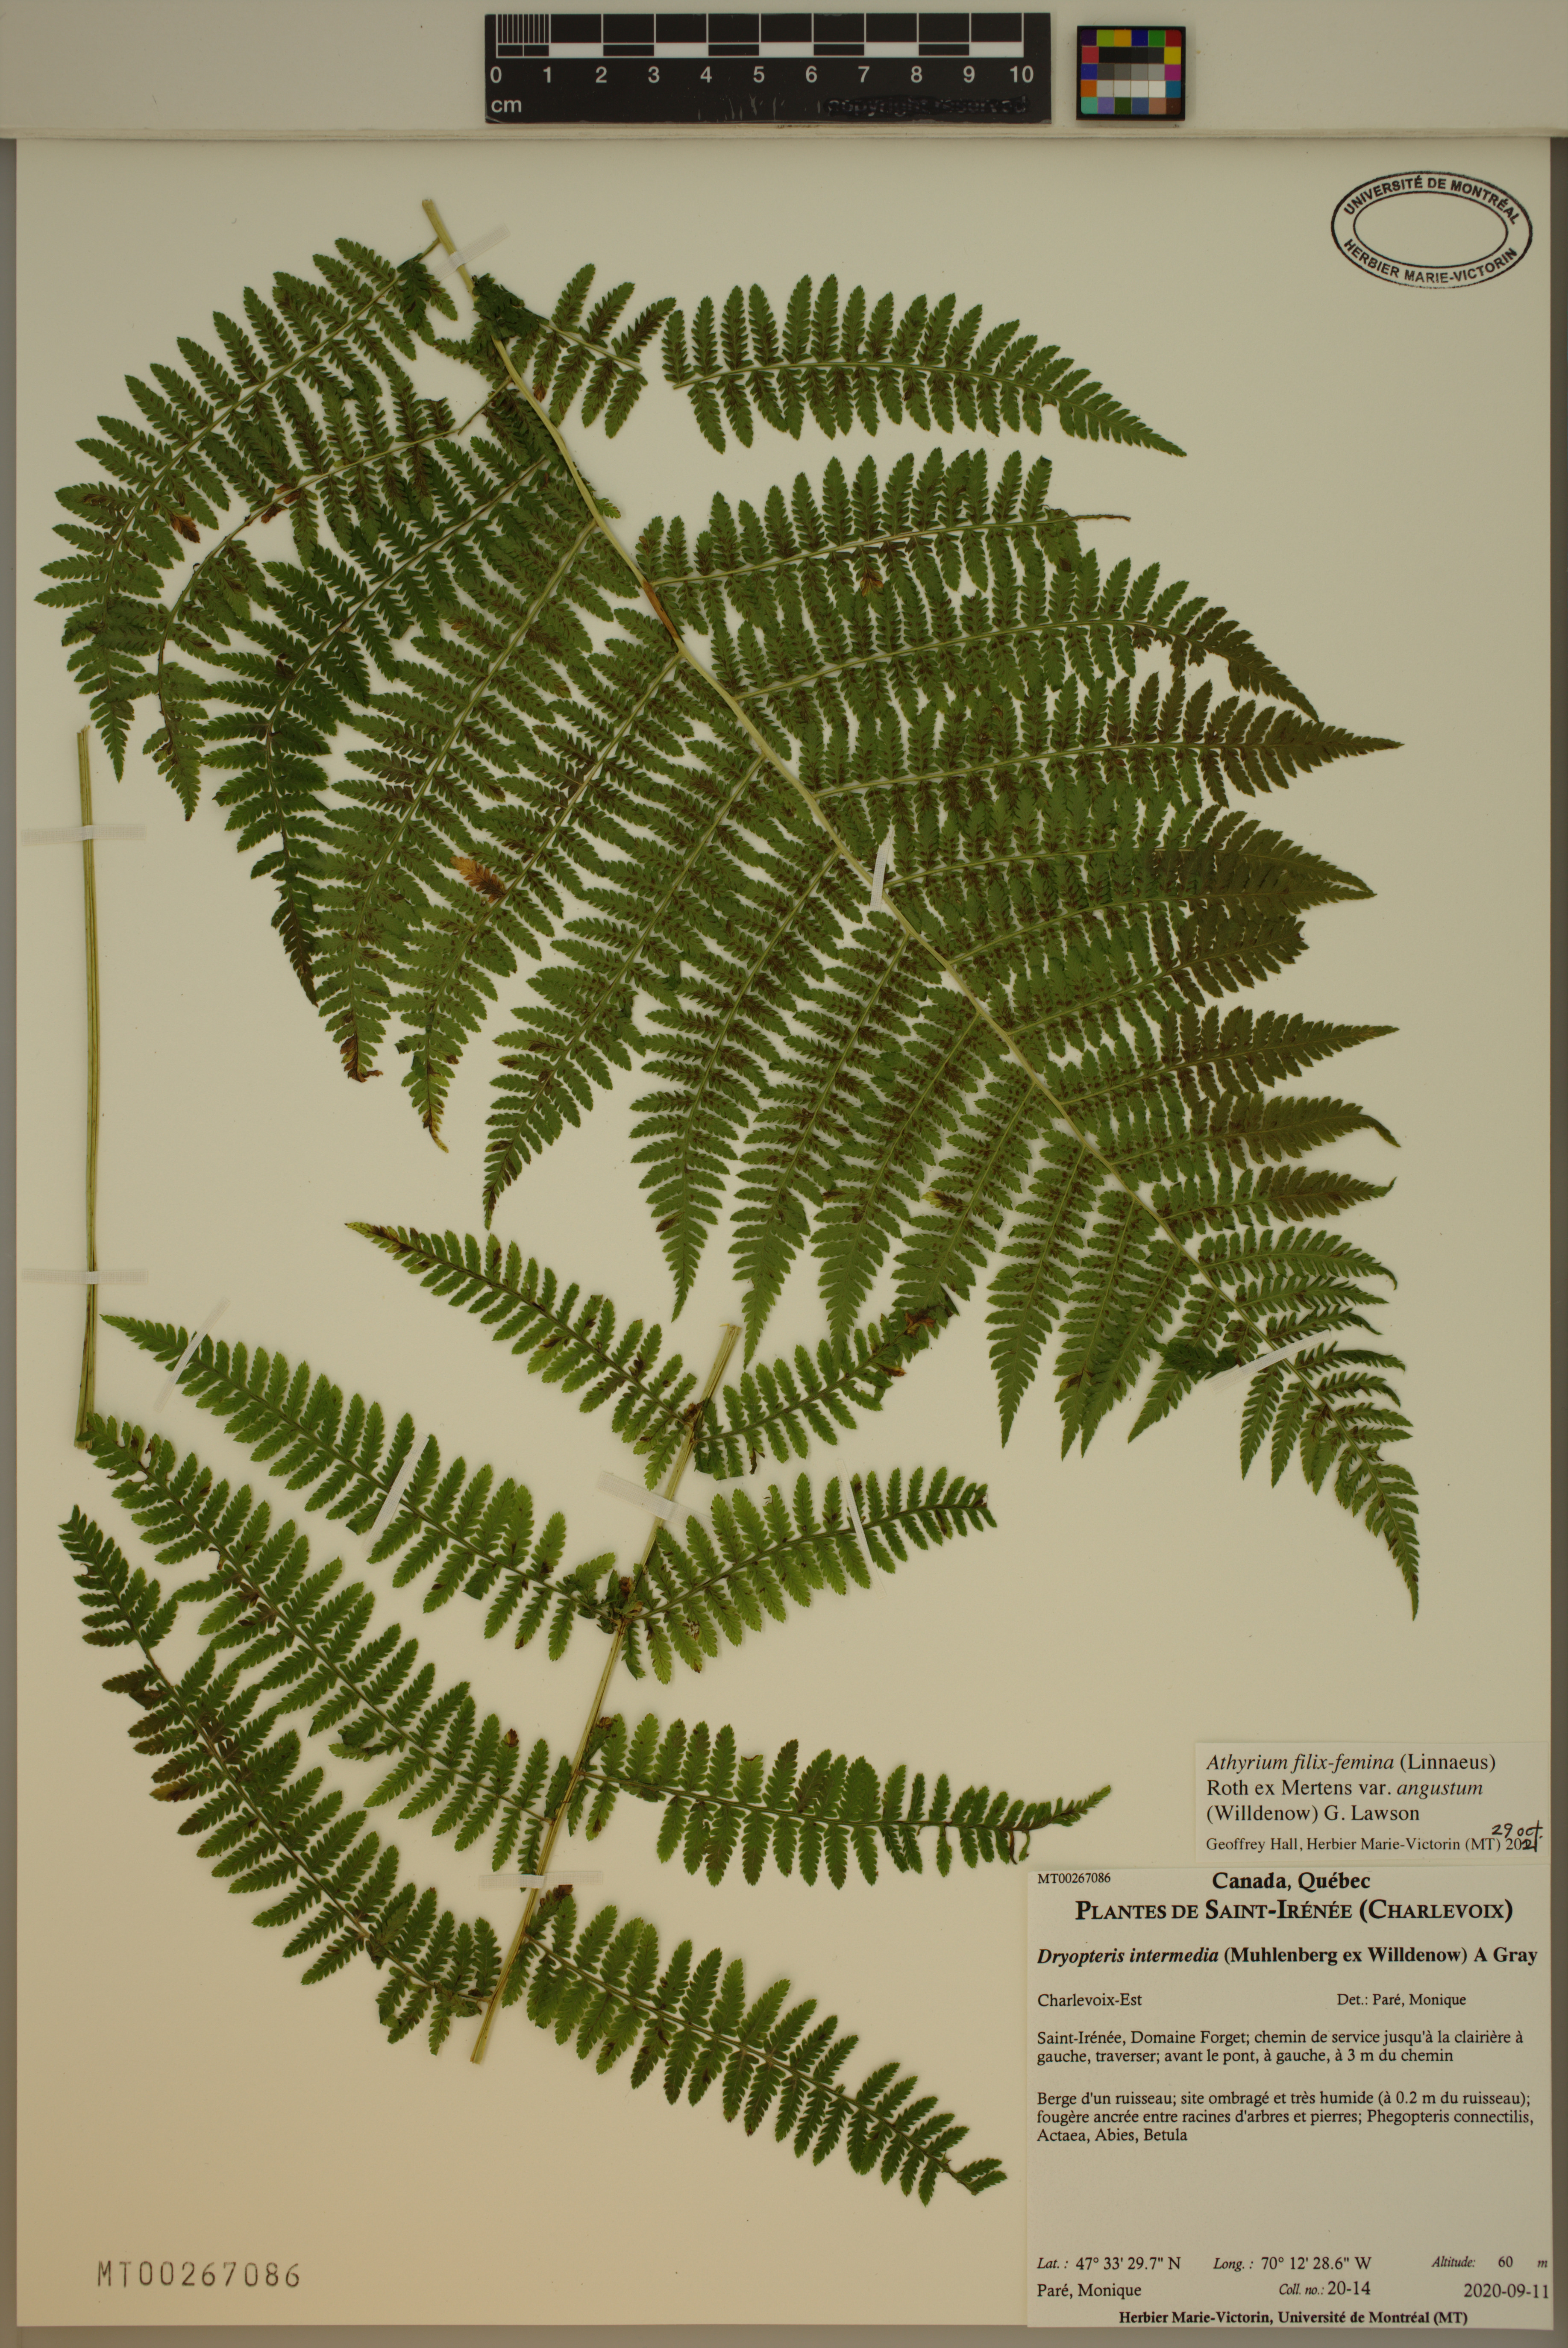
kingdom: Plantae
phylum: Tracheophyta
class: Polypodiopsida
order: Polypodiales
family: Athyriaceae
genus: Athyrium
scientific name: Athyrium angustum
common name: Northern lady fern
